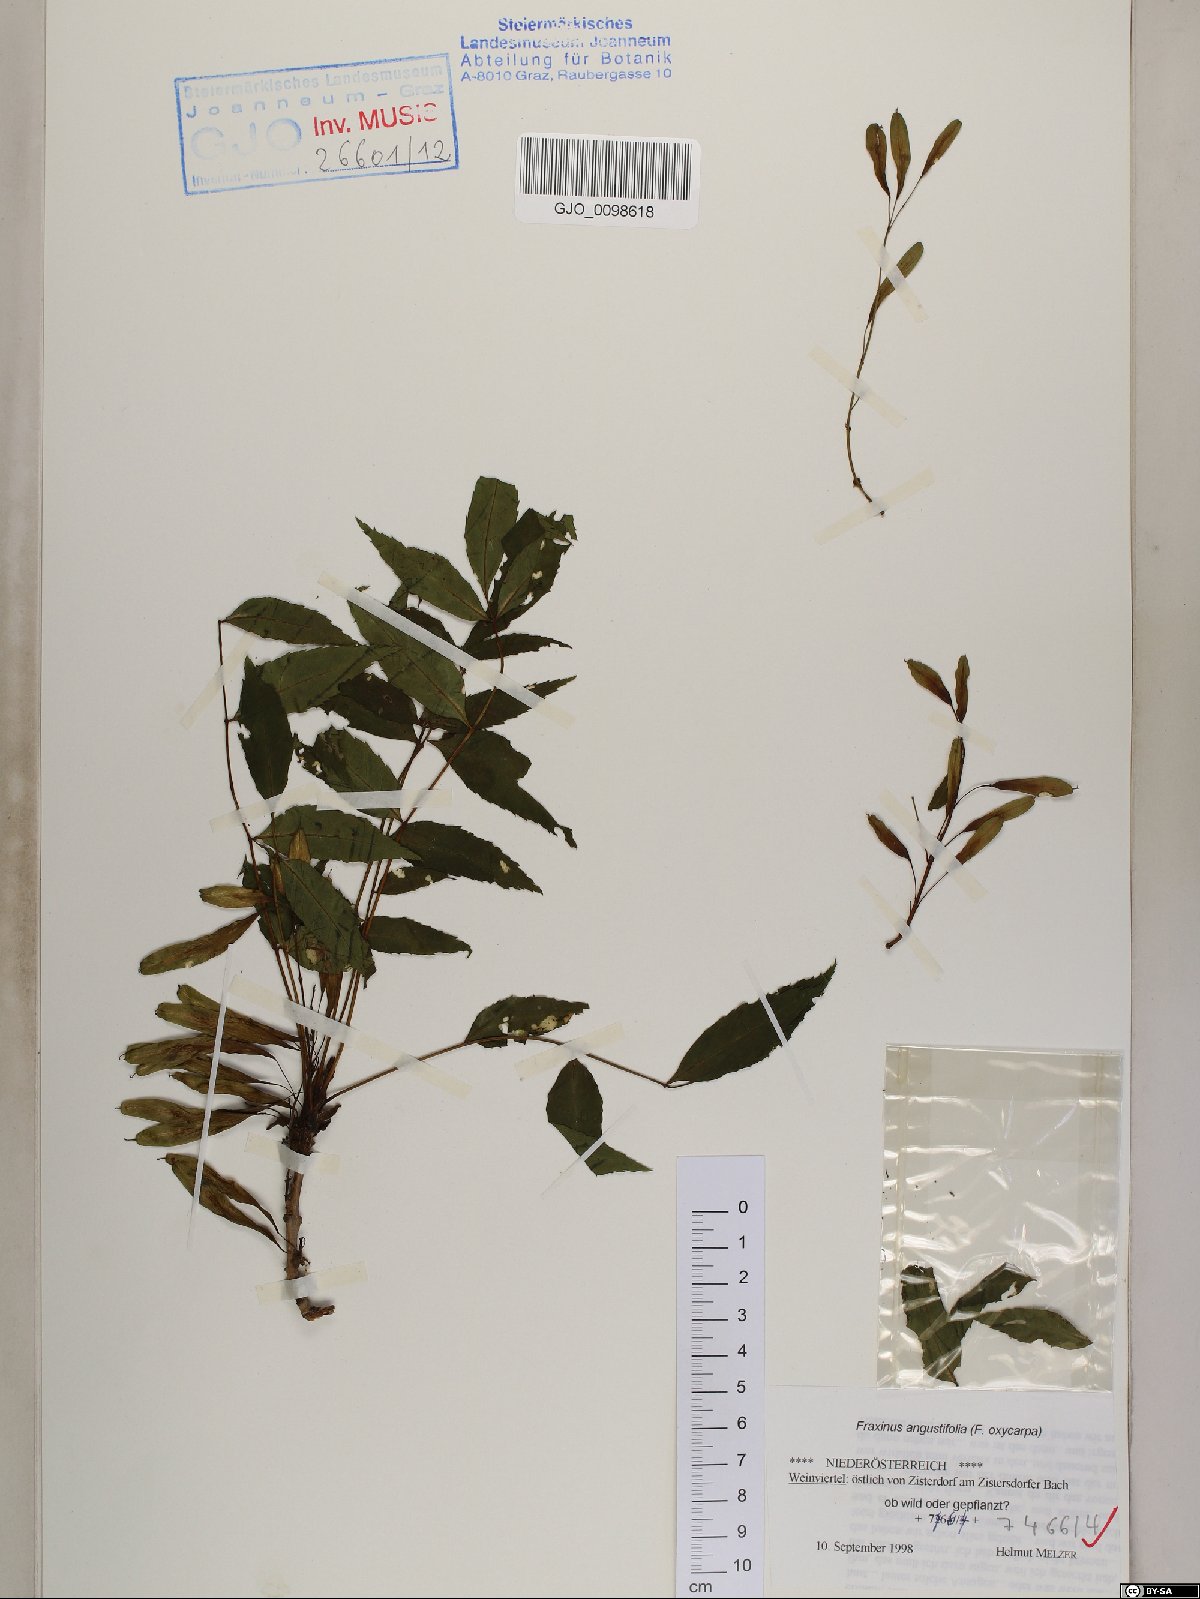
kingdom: Plantae
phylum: Tracheophyta
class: Magnoliopsida
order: Lamiales
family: Oleaceae
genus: Fraxinus
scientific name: Fraxinus angustifolia
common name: Narrow-leafed ash
